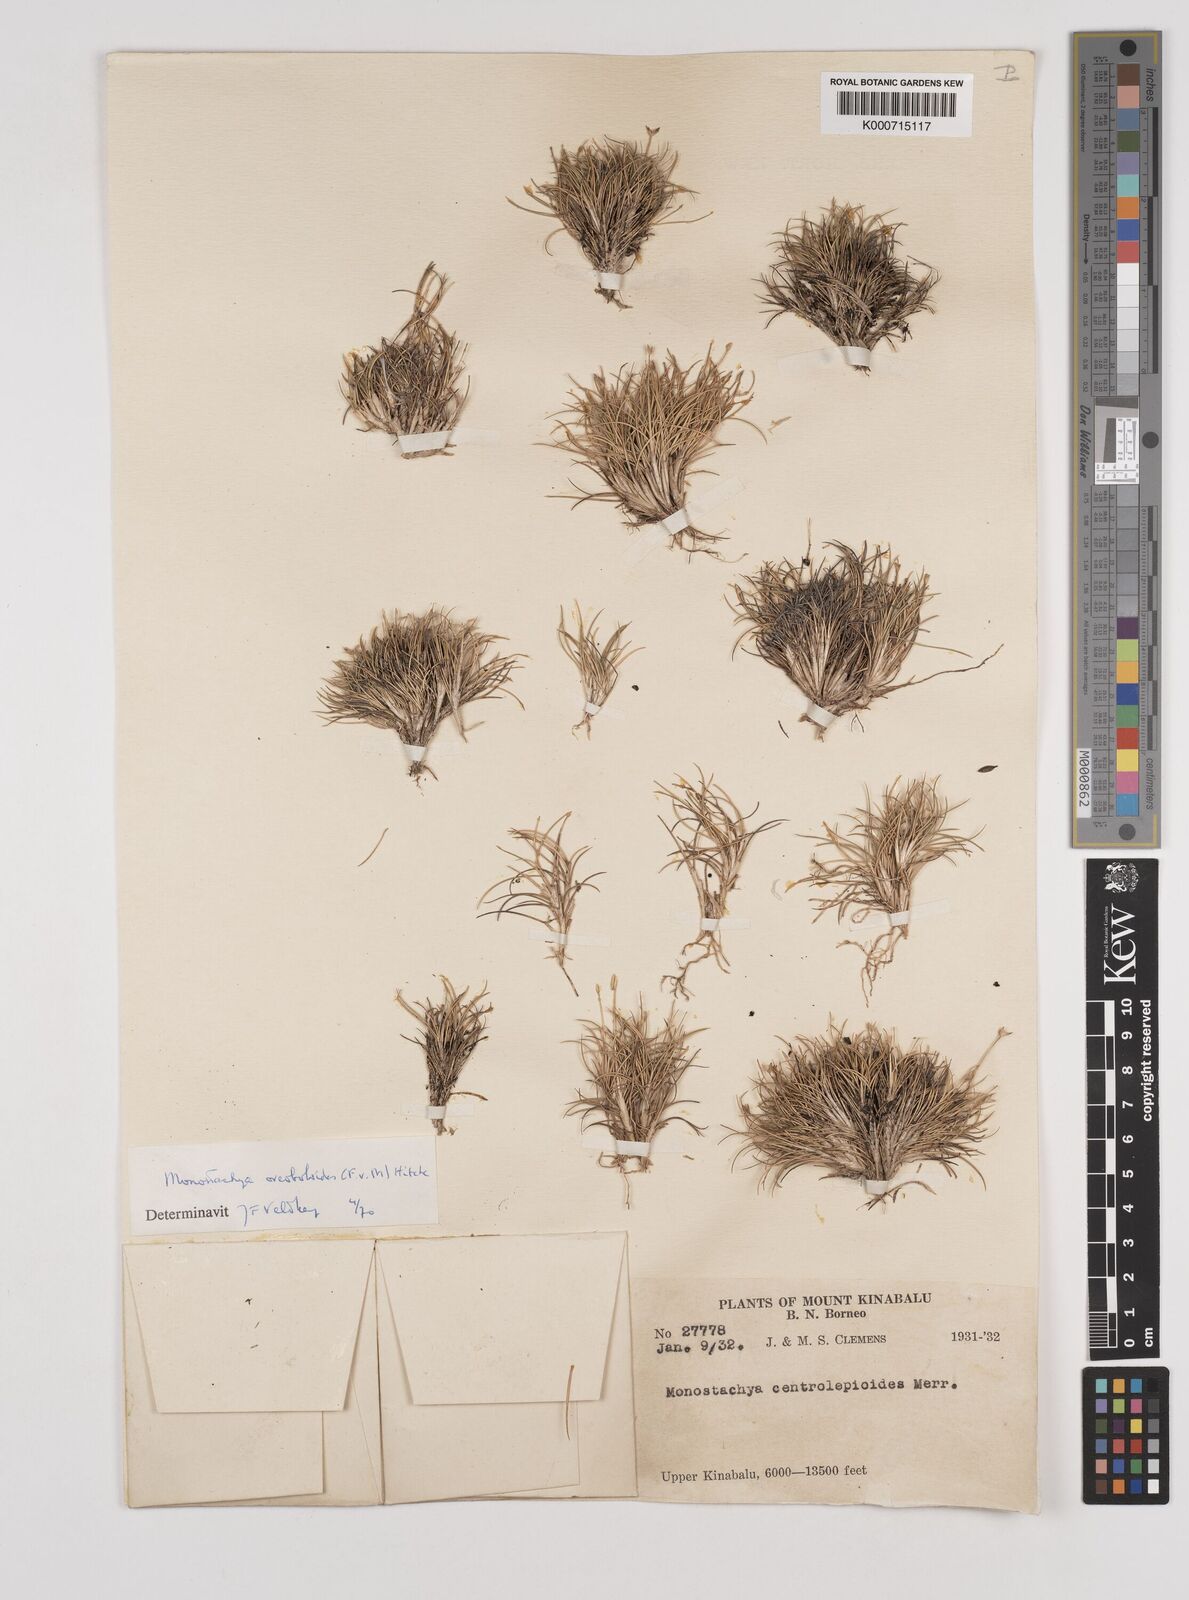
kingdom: Plantae
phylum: Tracheophyta
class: Liliopsida
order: Poales
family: Poaceae
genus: Rytidosperma
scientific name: Rytidosperma oreoboloides
